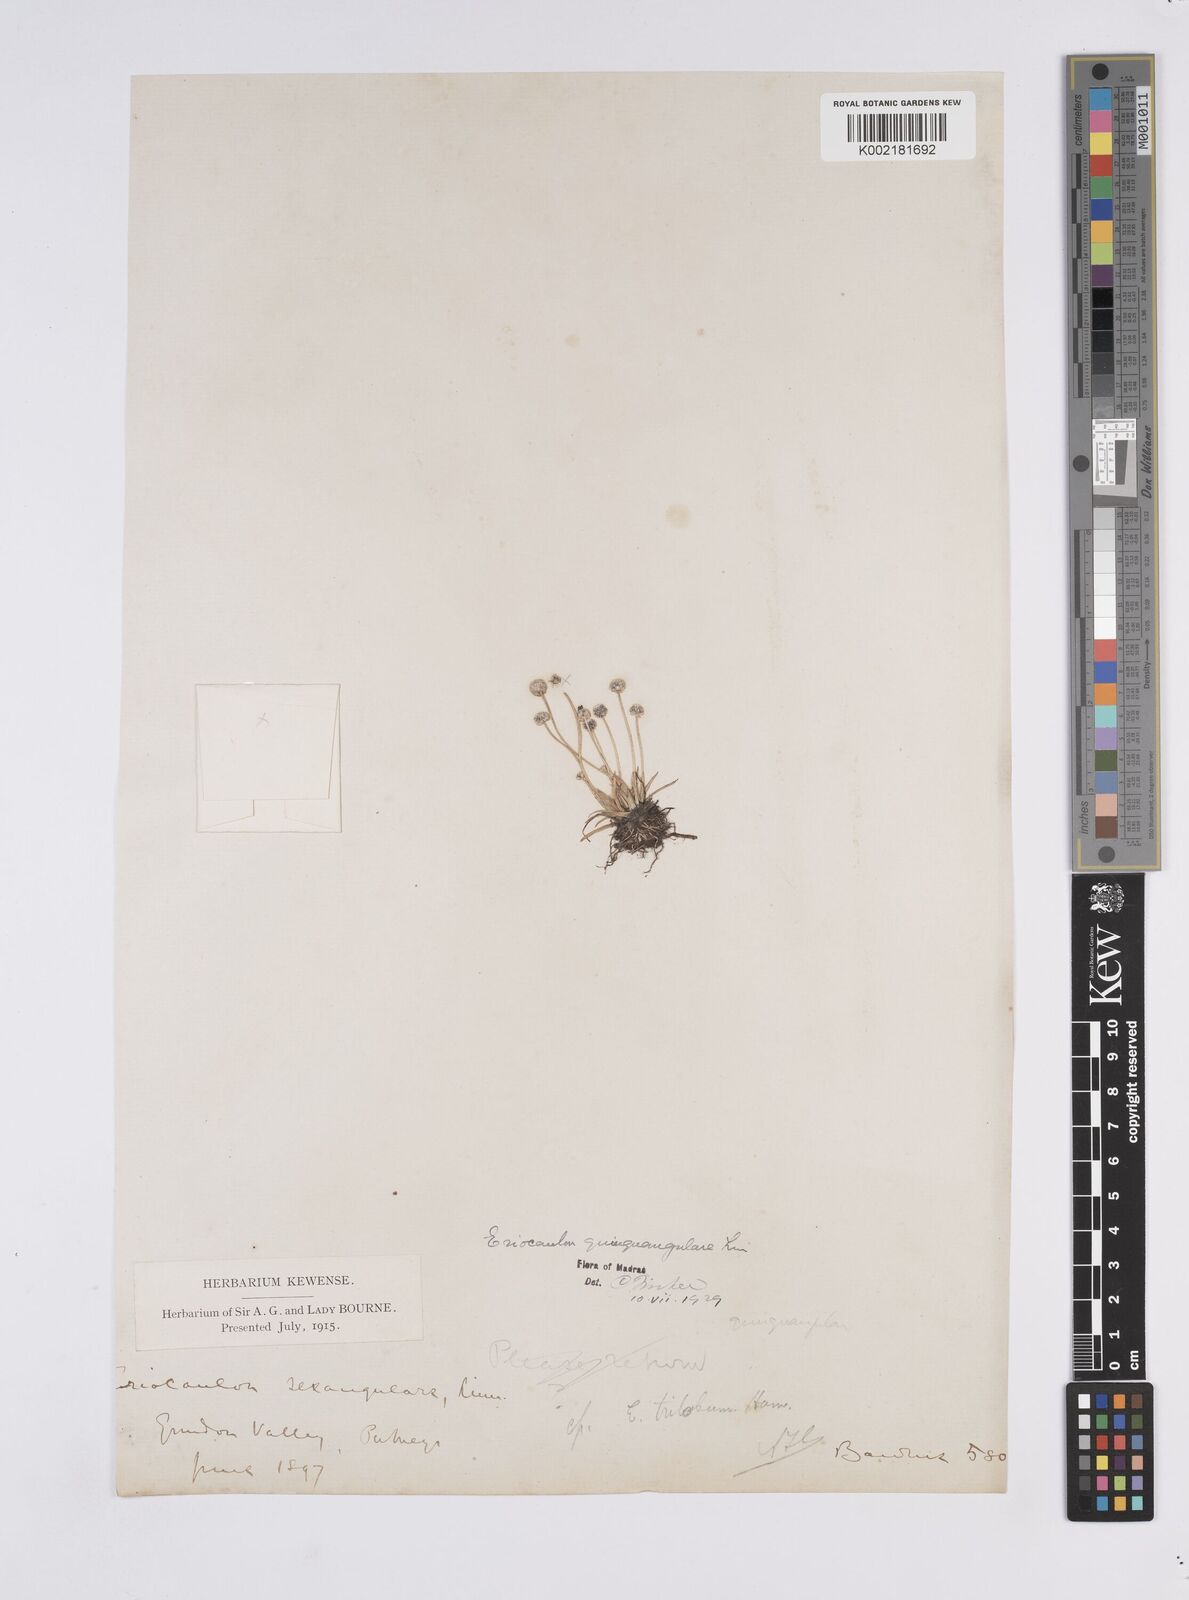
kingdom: Plantae
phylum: Tracheophyta
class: Liliopsida
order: Poales
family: Eriocaulaceae
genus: Eriocaulon
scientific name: Eriocaulon quinquangulare
